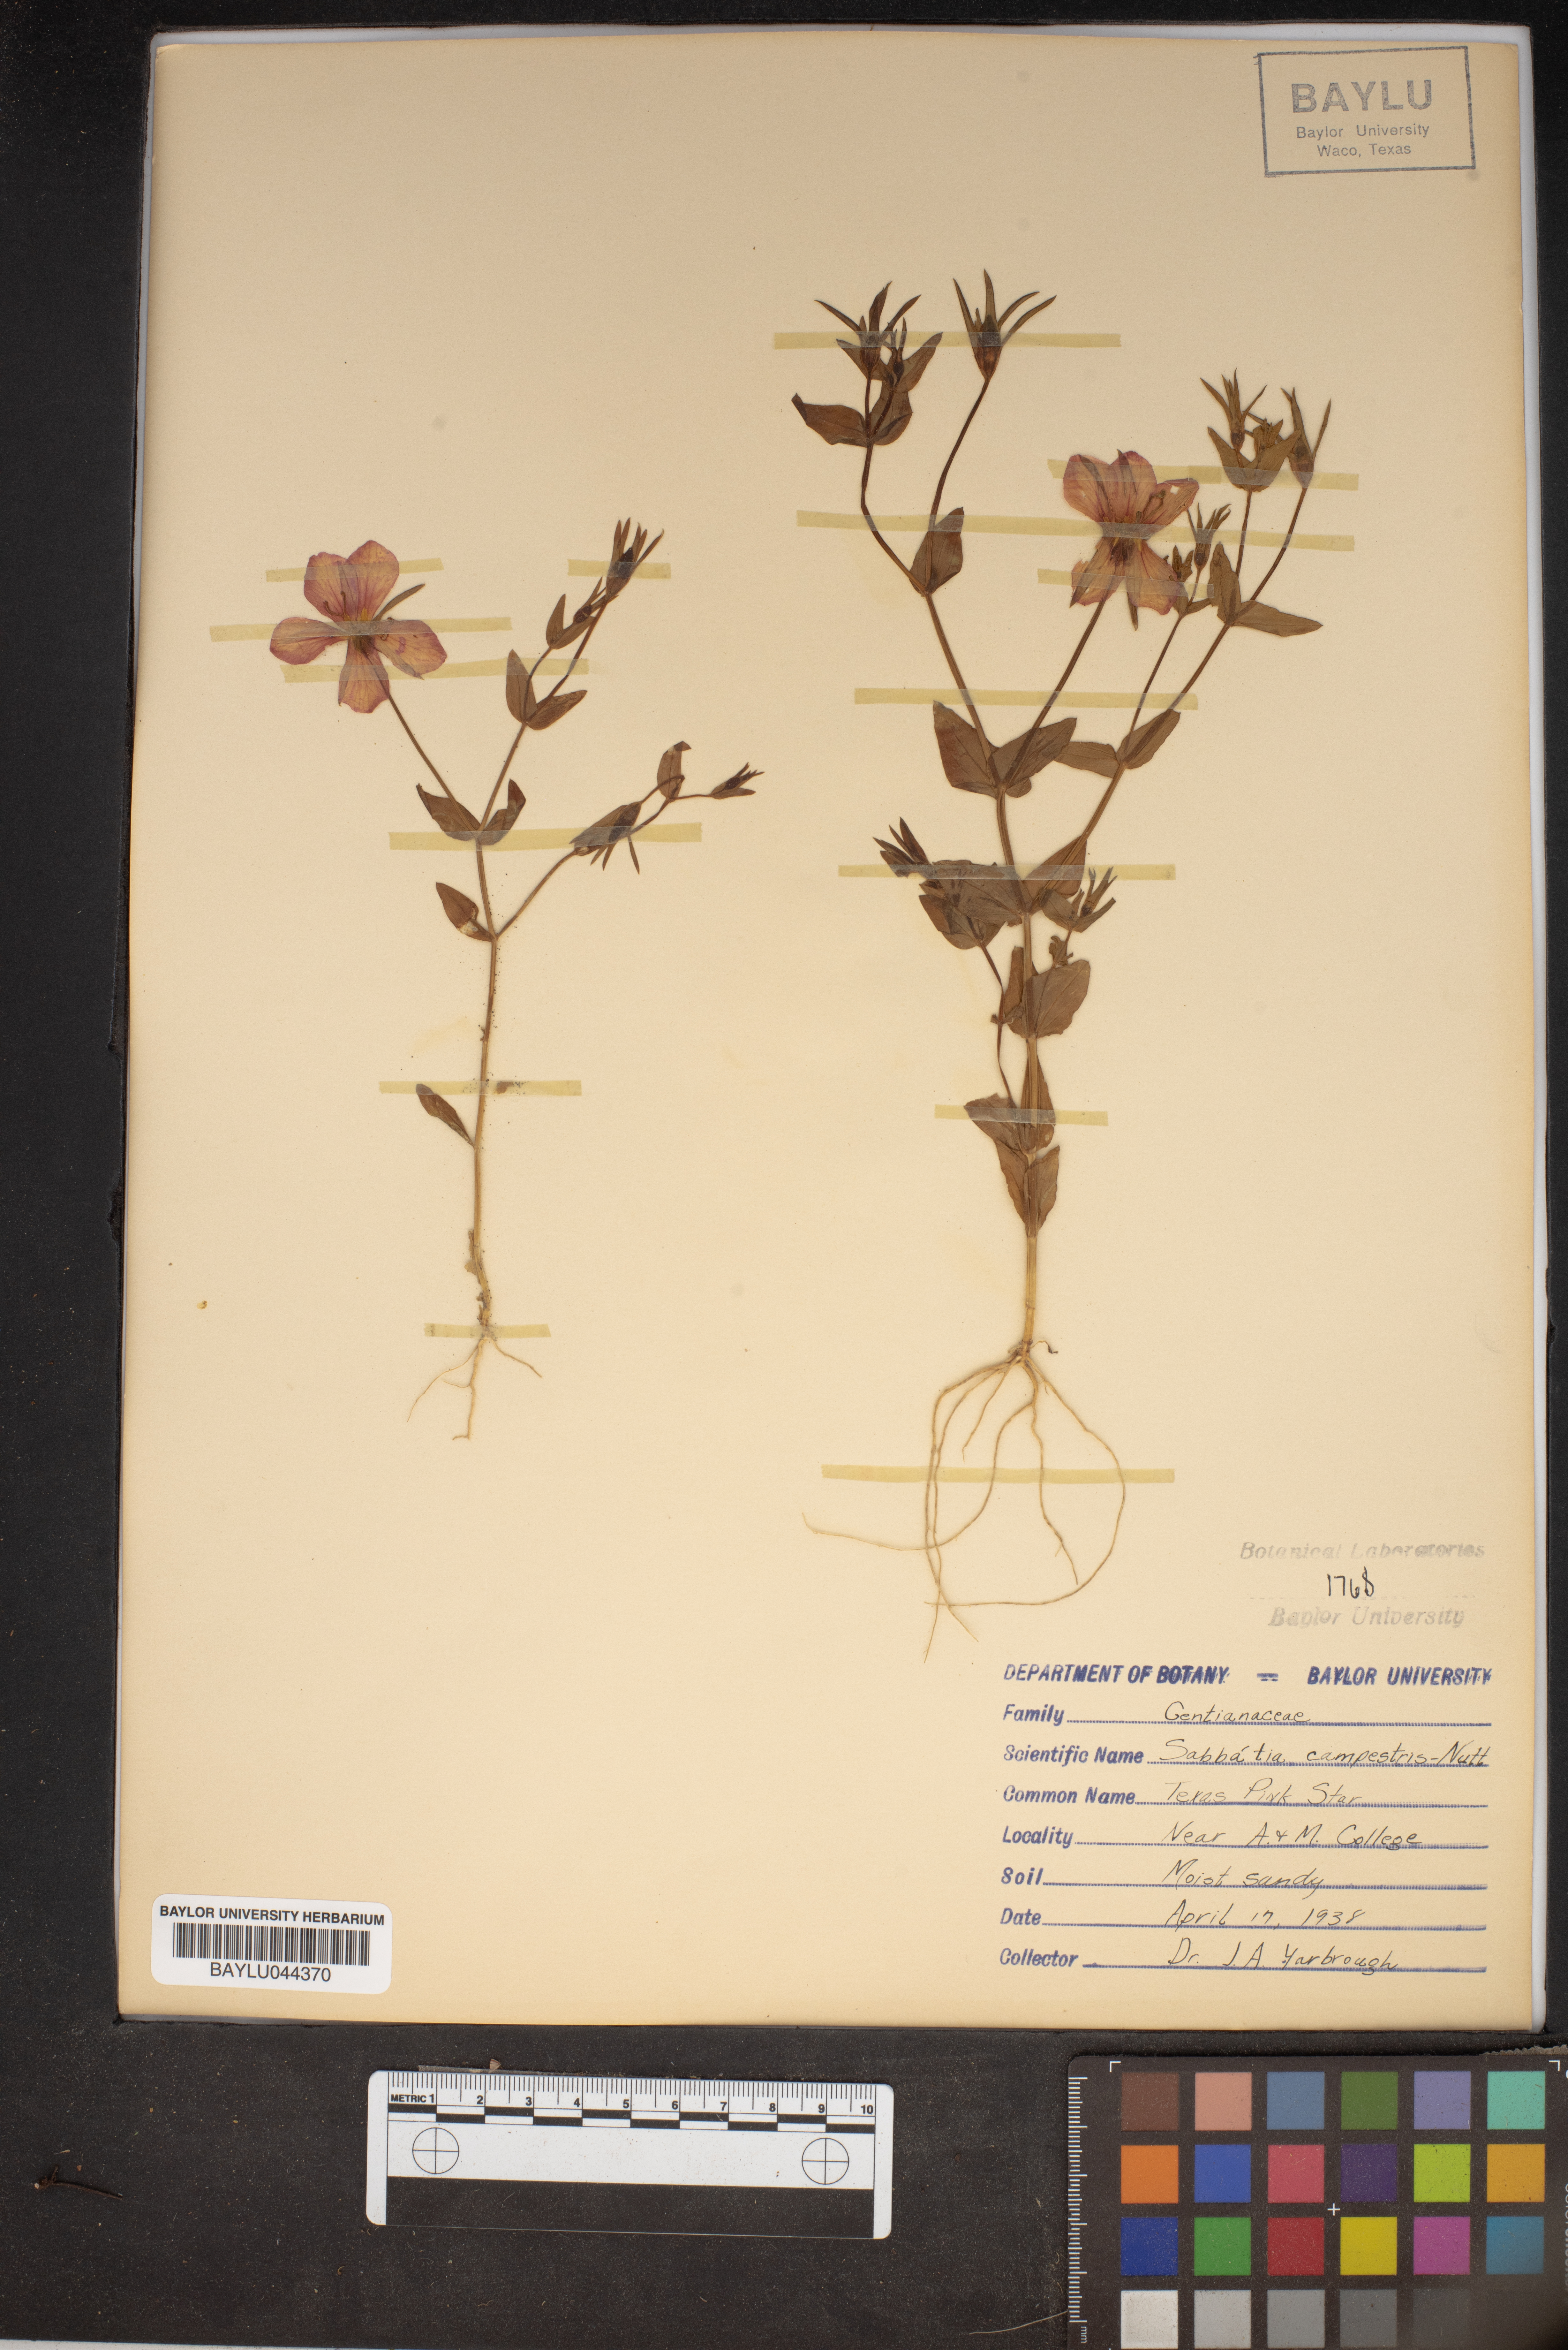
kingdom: Plantae
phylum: Tracheophyta
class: Magnoliopsida
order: Gentianales
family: Gentianaceae
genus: Sabatia
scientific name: Sabatia campestris
